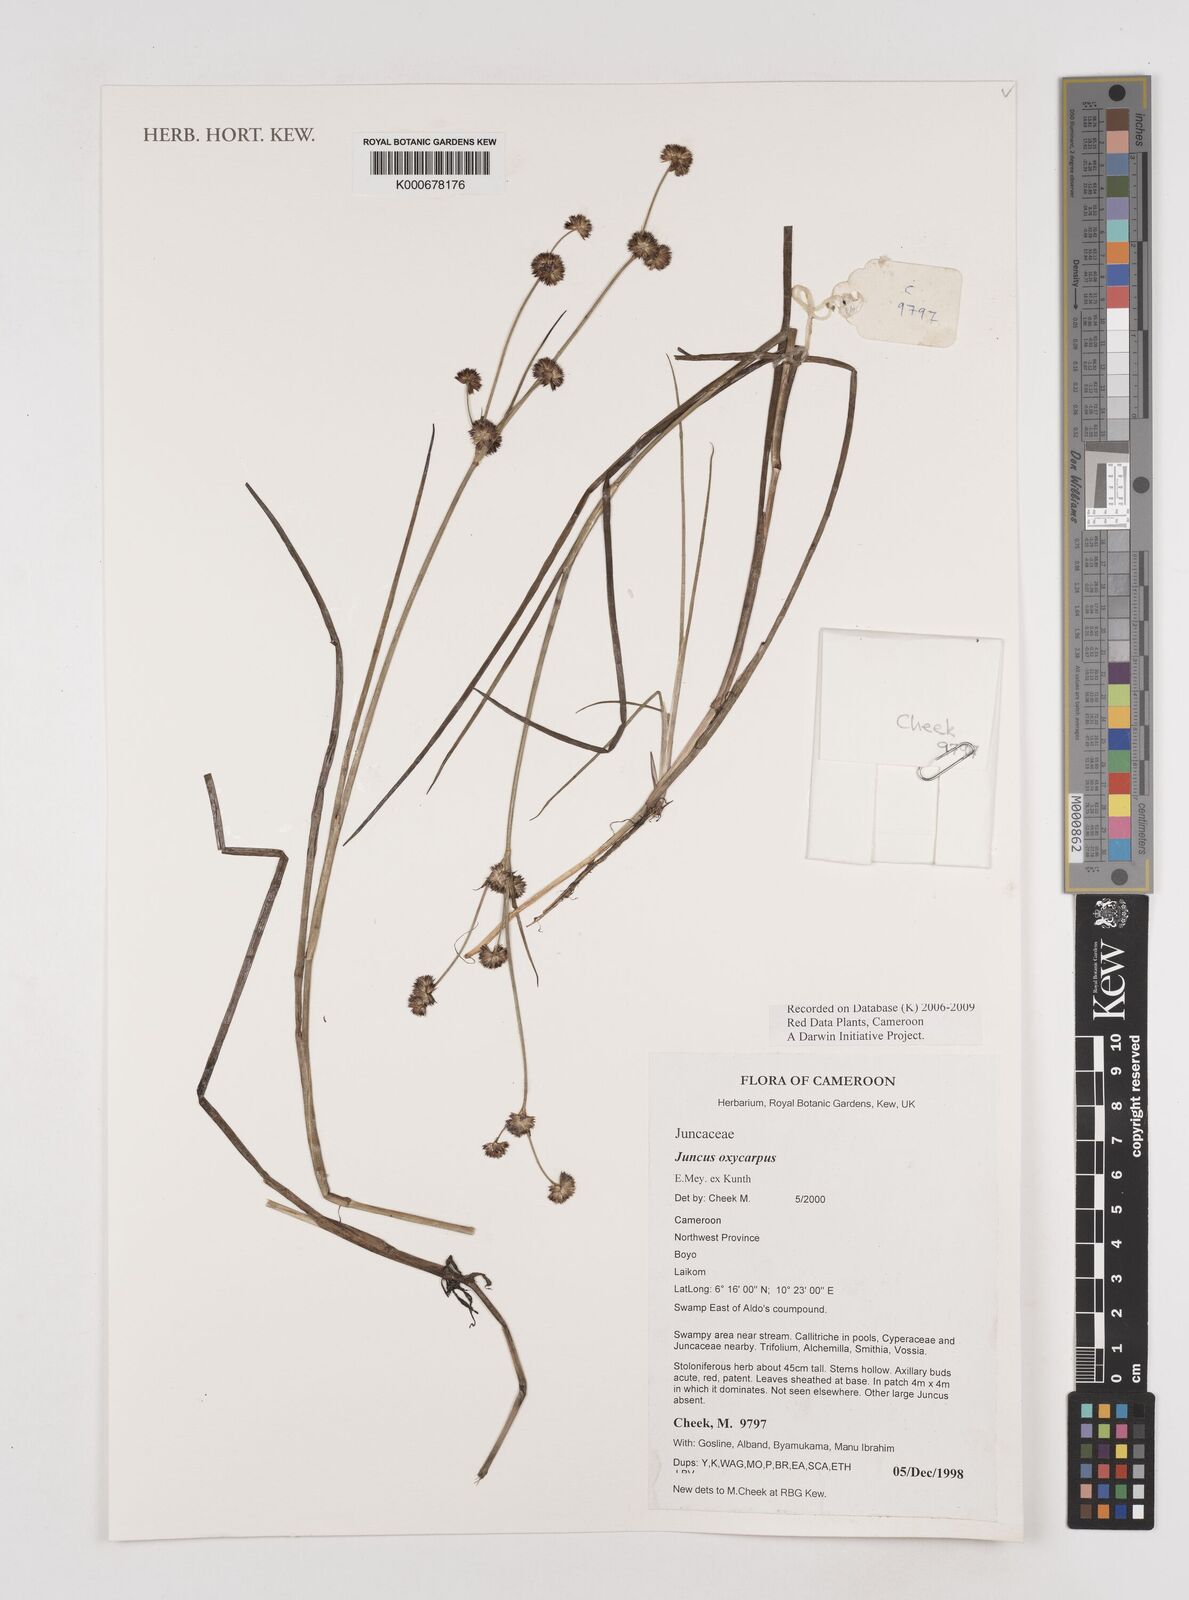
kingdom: Plantae
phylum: Tracheophyta
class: Liliopsida
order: Poales
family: Juncaceae
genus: Juncus
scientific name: Juncus oxycarpus
